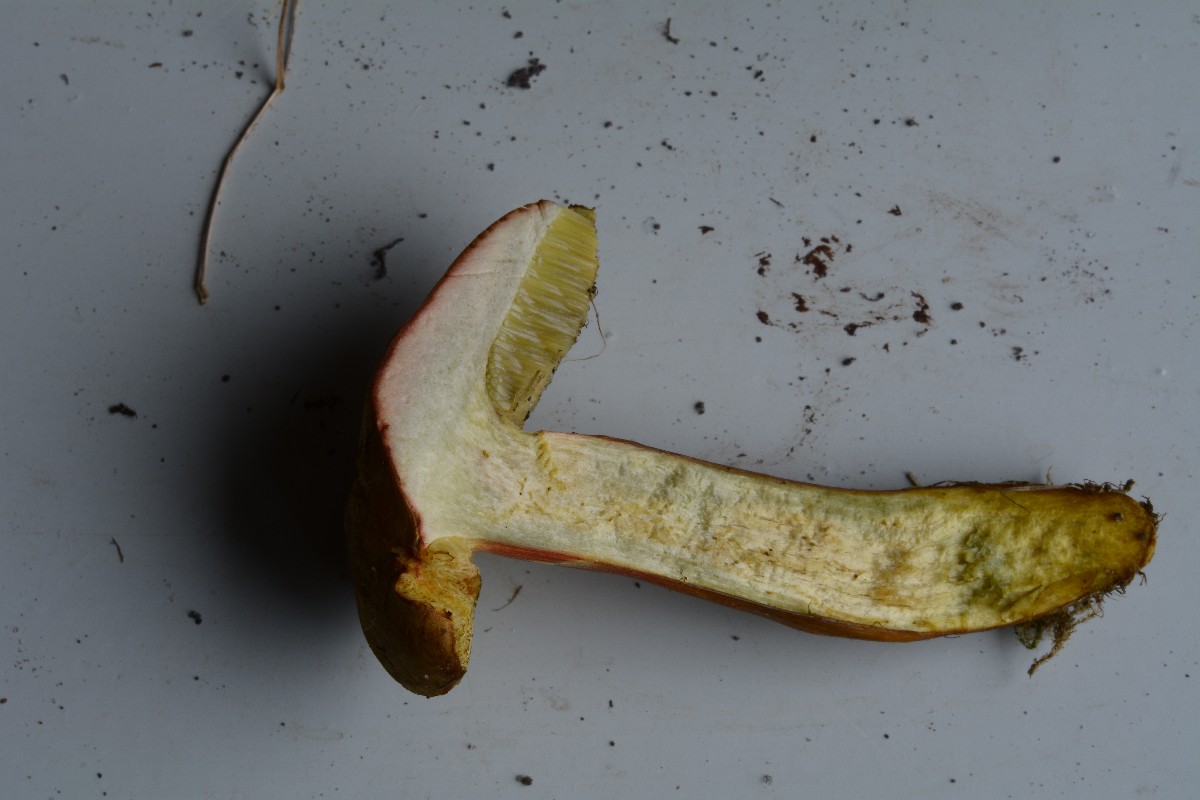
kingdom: Fungi
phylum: Basidiomycota
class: Agaricomycetes
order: Boletales
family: Boletaceae
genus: Hortiboletus
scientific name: Hortiboletus bubalinus
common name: aurora-rørhat
